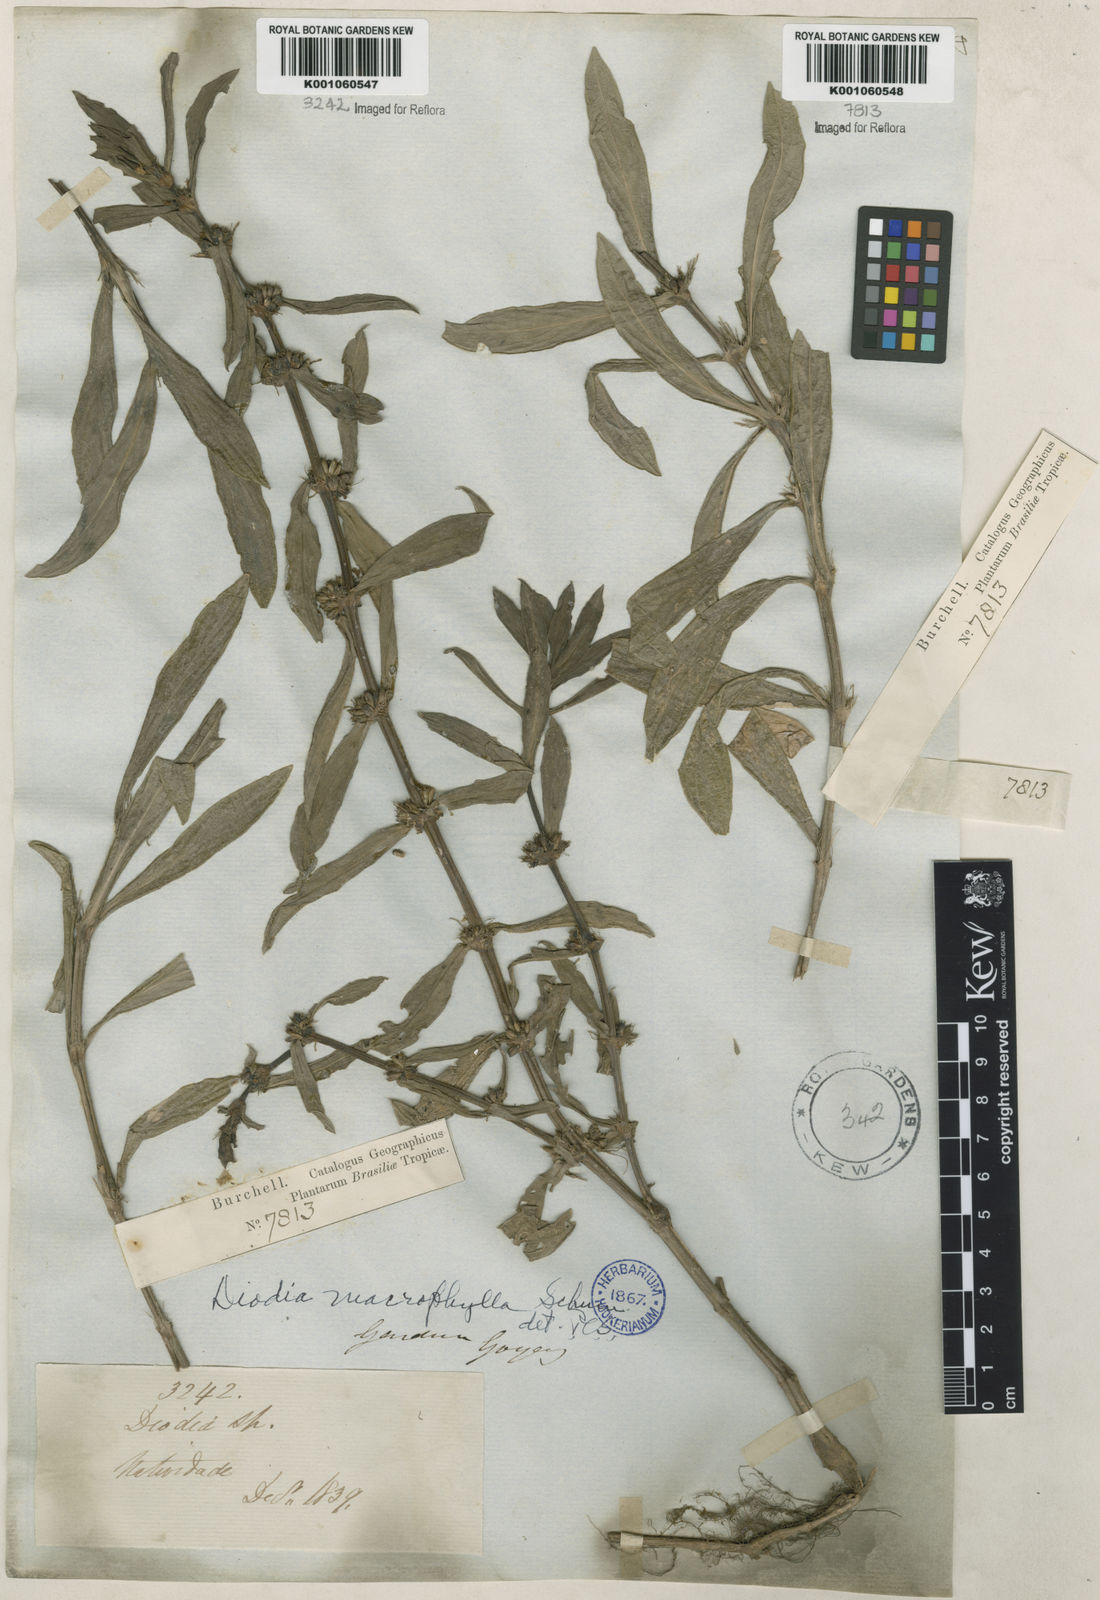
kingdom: Plantae
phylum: Tracheophyta
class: Magnoliopsida
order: Gentianales
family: Rubiaceae
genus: Diodia
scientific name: Diodia macrophylla
